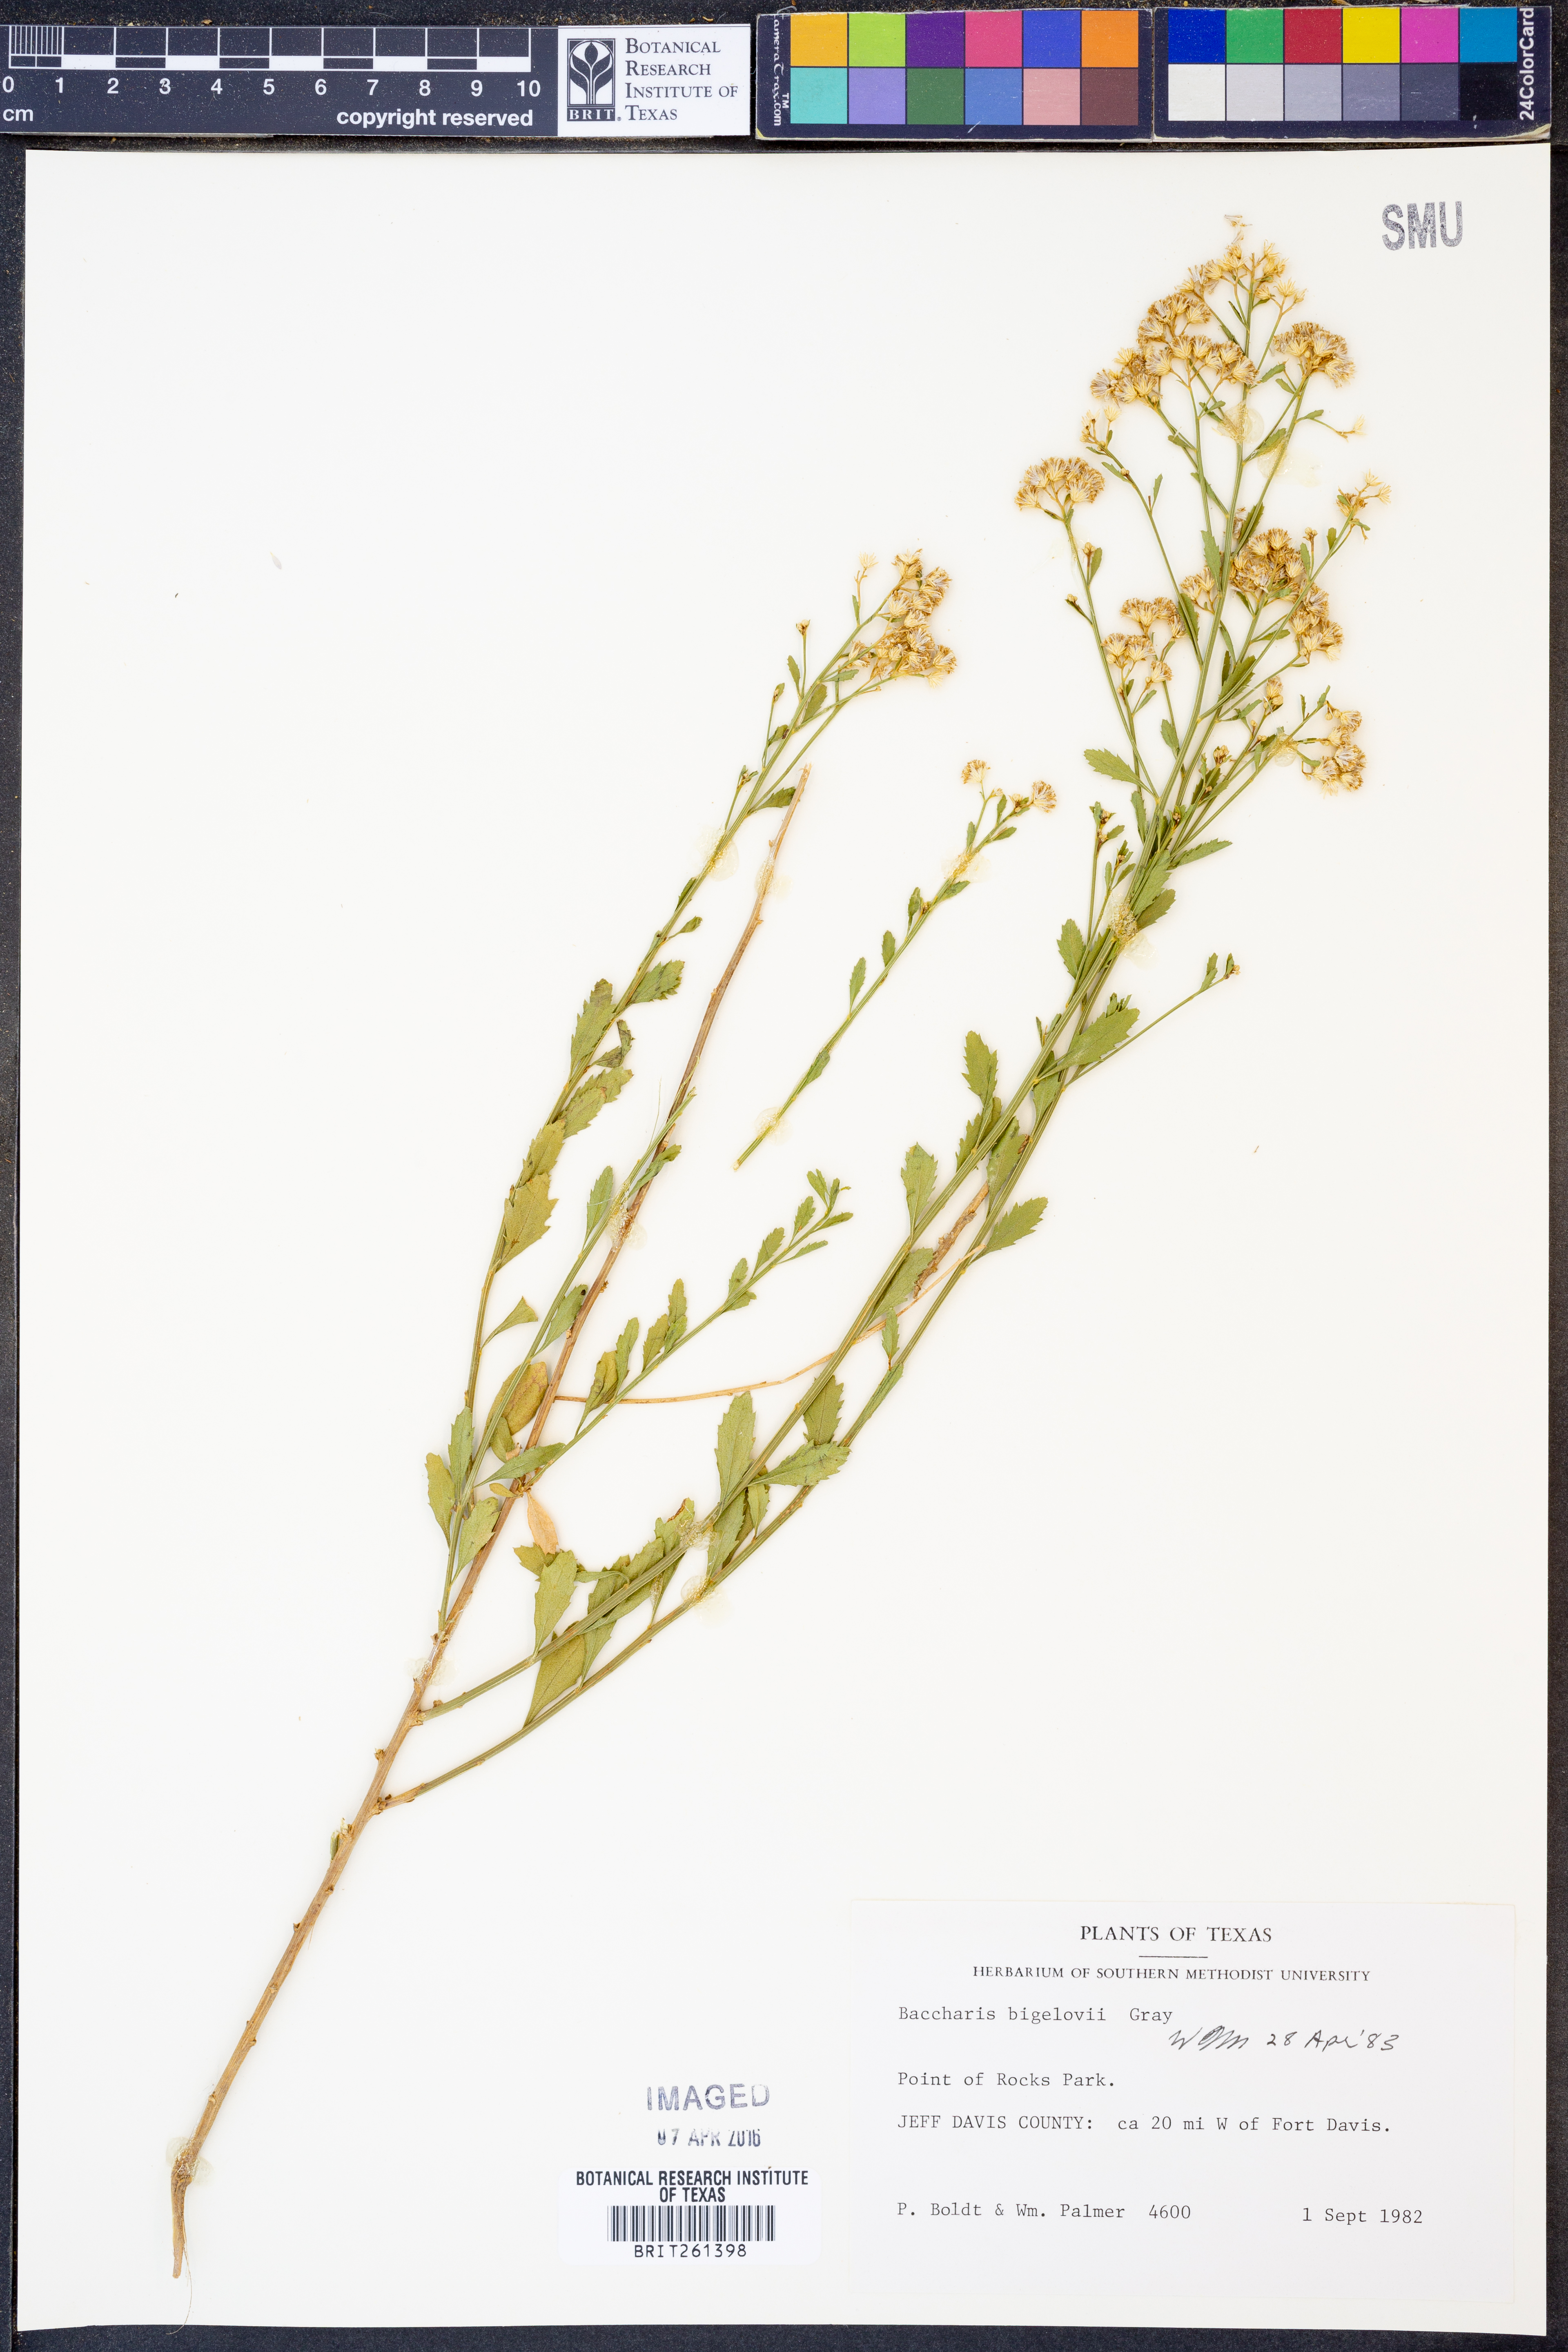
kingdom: Plantae
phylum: Tracheophyta
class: Magnoliopsida
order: Asterales
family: Asteraceae
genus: Baccharis
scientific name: Baccharis bigelovii
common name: Bigelow's false willow
